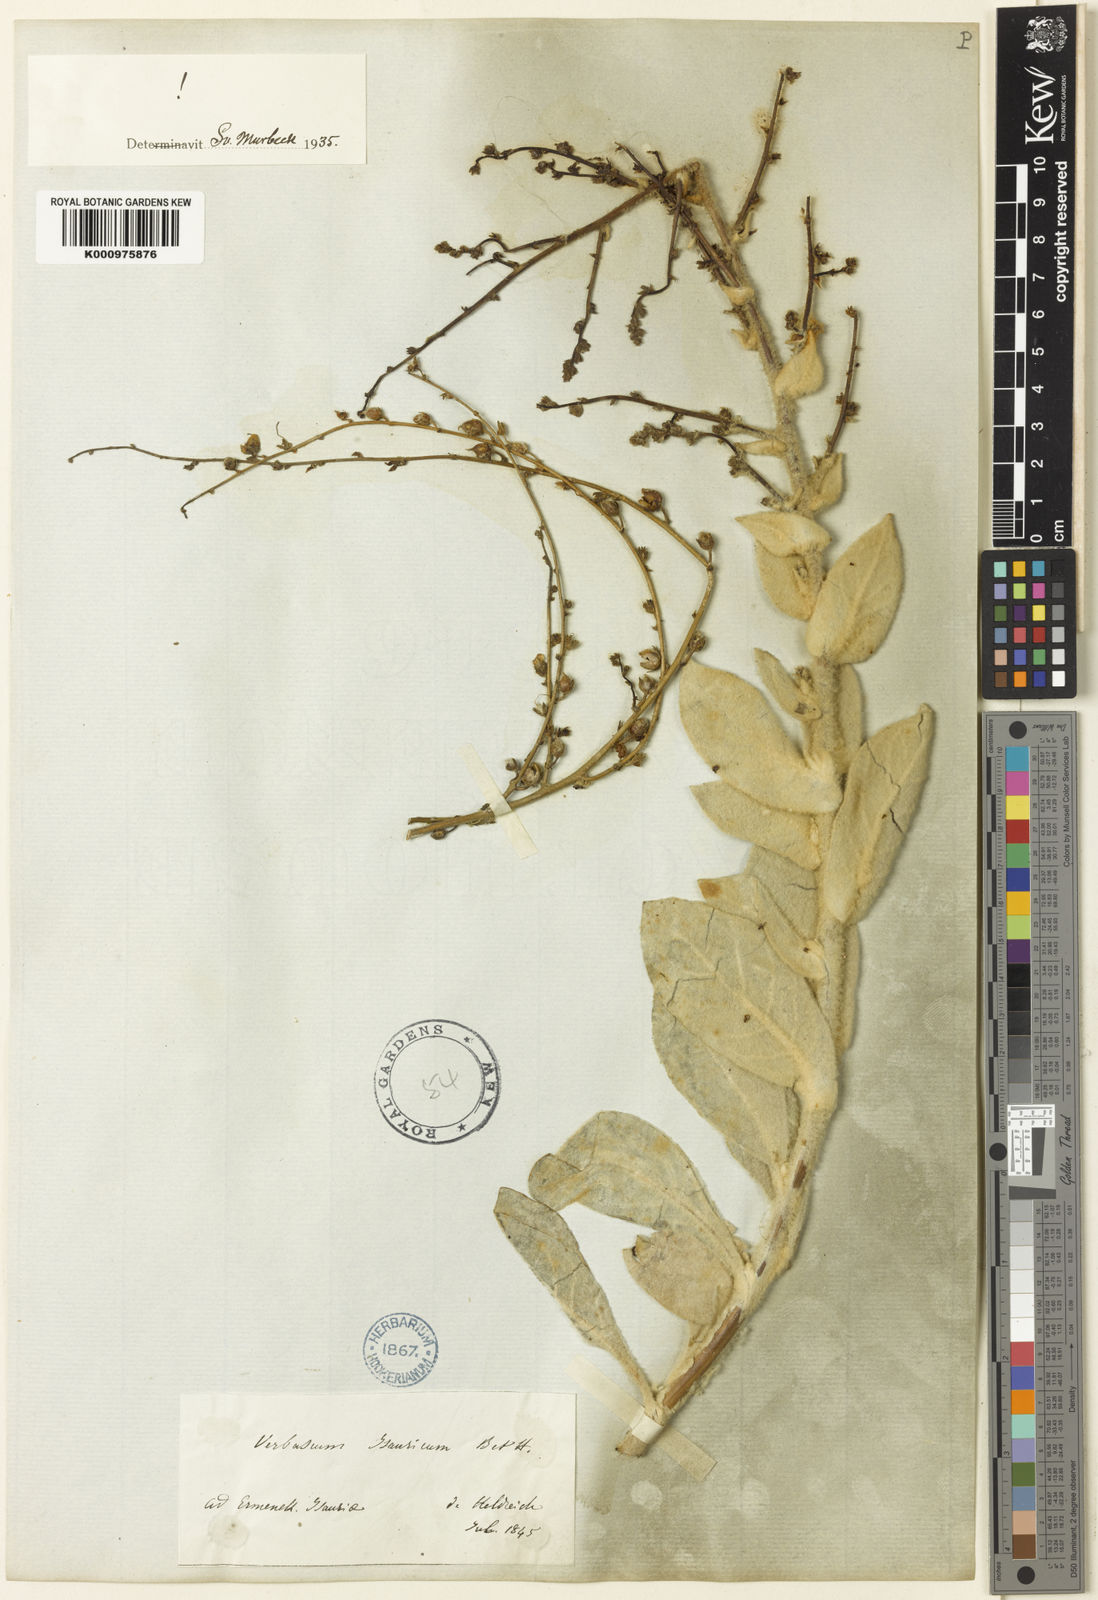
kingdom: Plantae
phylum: Tracheophyta
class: Magnoliopsida
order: Lamiales
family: Scrophulariaceae
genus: Verbascum
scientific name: Verbascum isauricum
